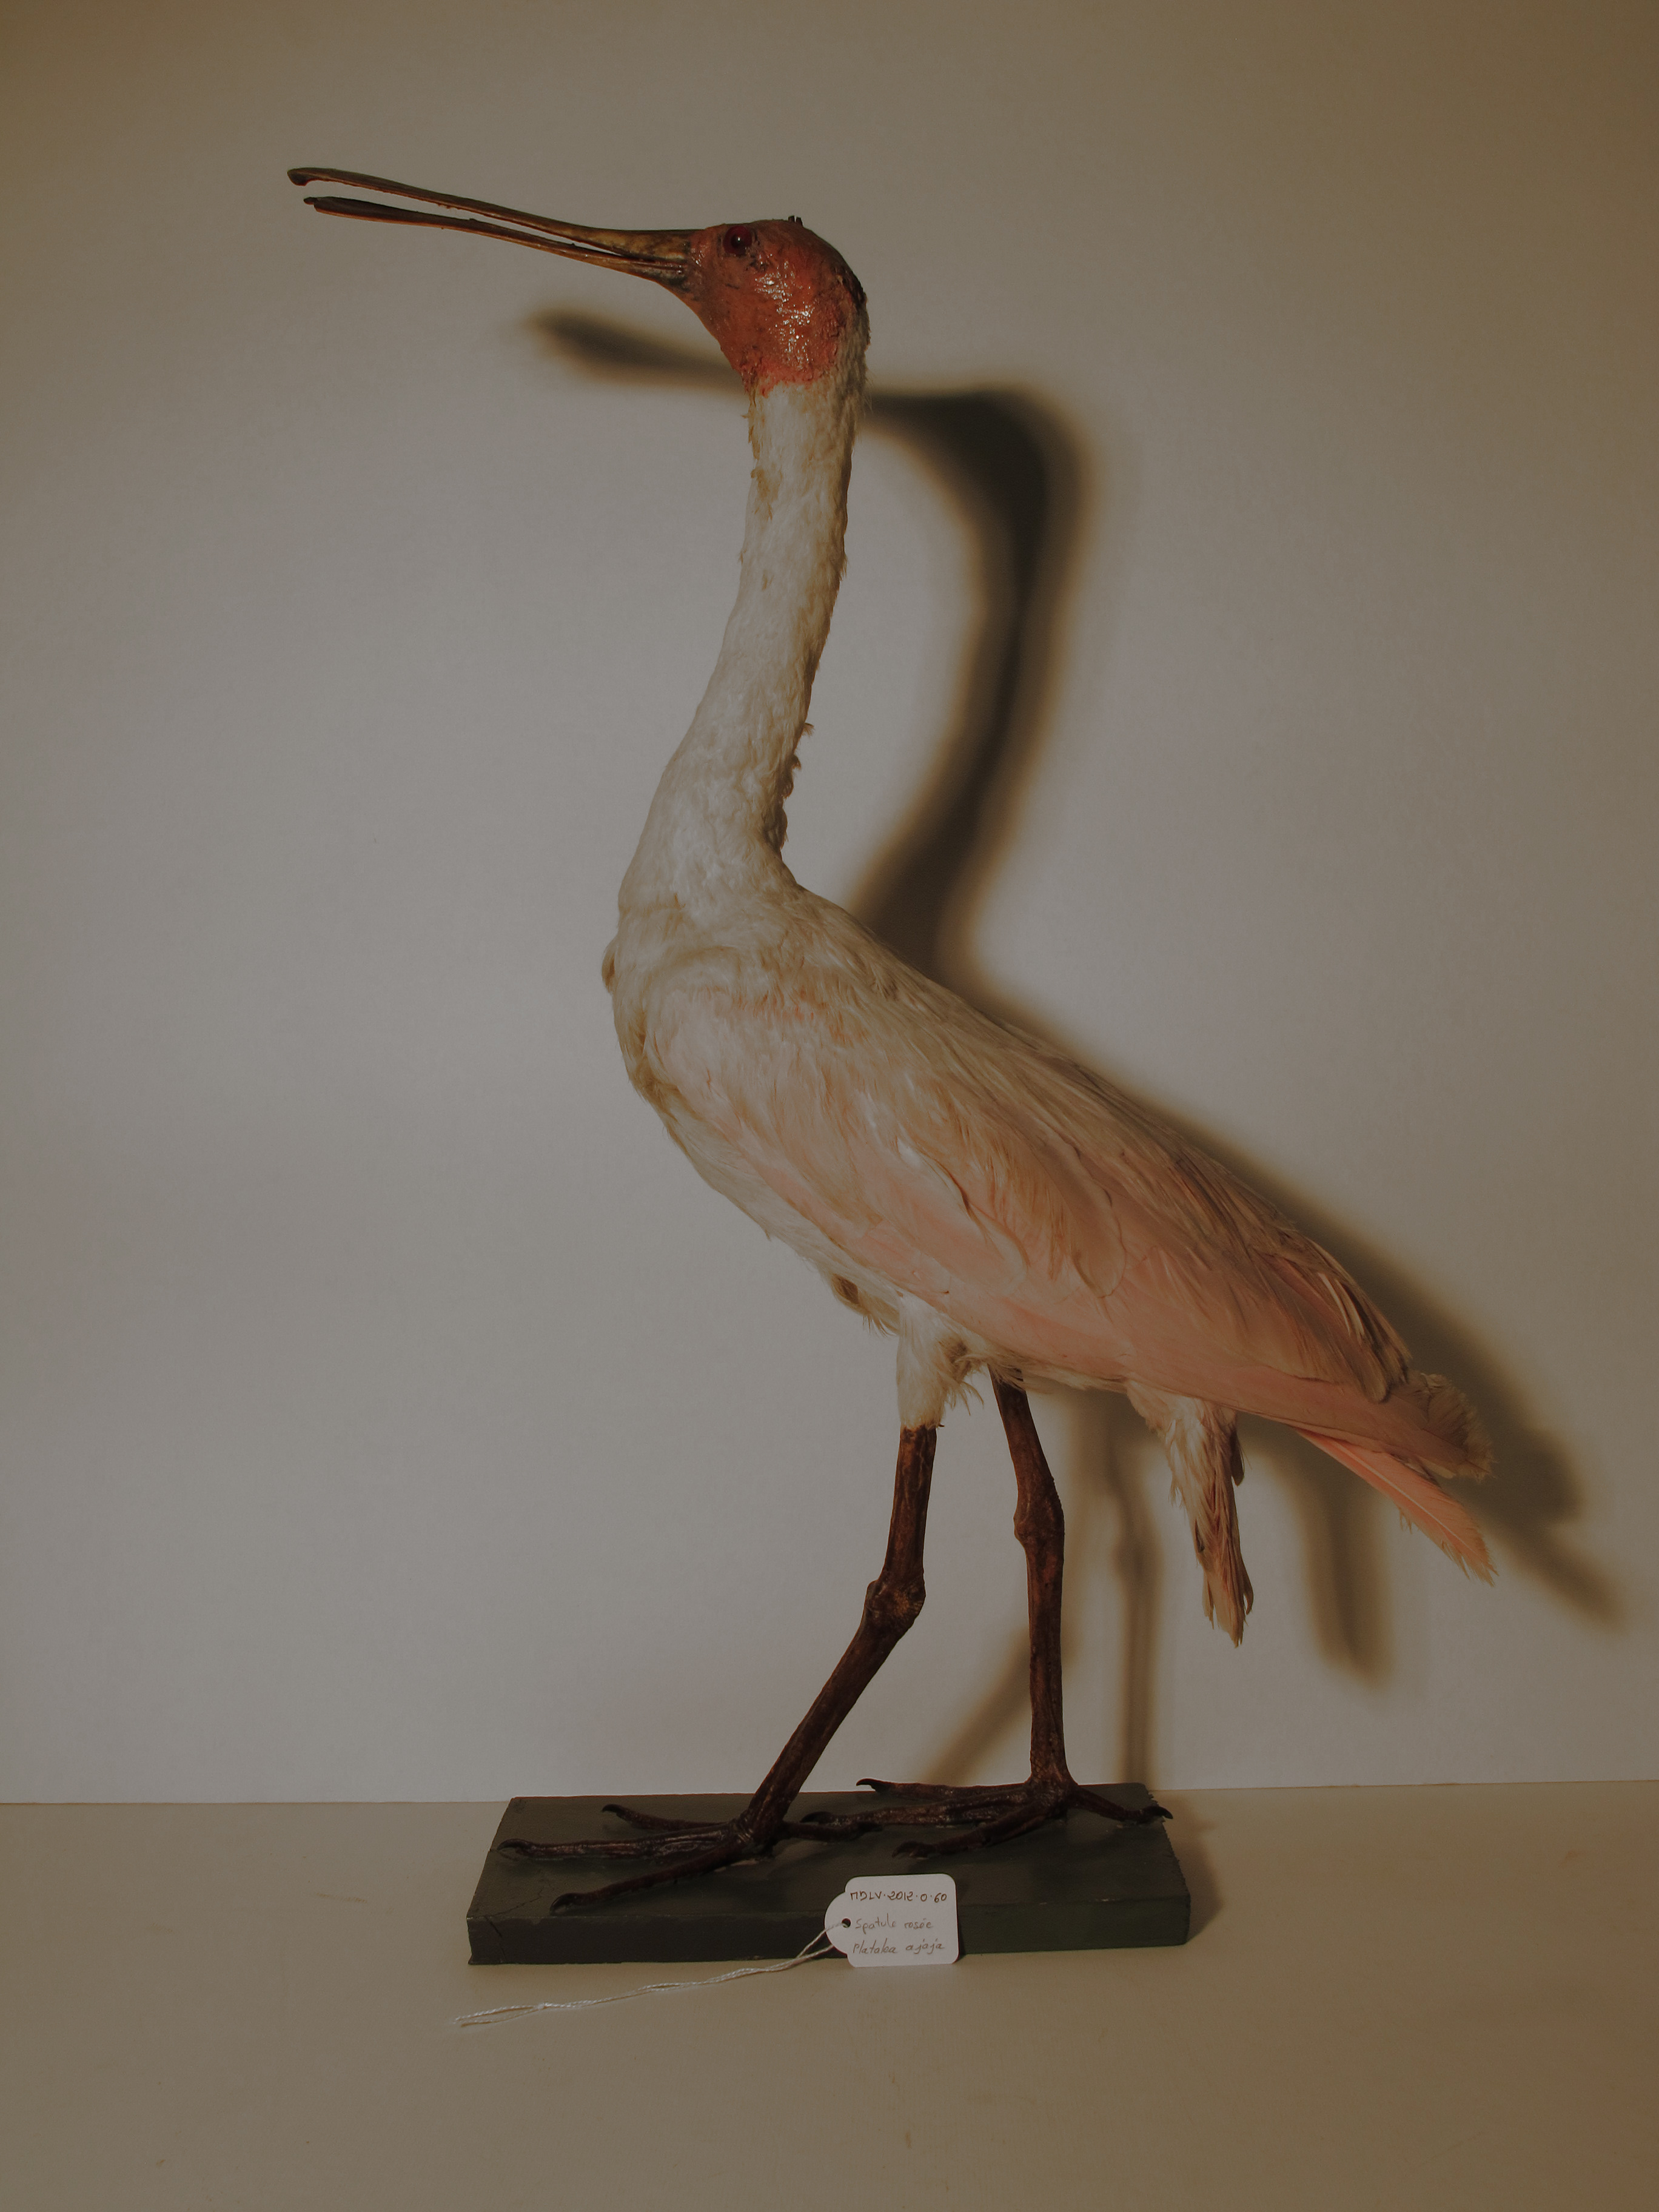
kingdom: Animalia
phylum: Chordata
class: Aves
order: Pelecaniformes
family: Threskiornithidae
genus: Platalea
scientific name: Platalea ajaja
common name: Roseate Spoonbill
